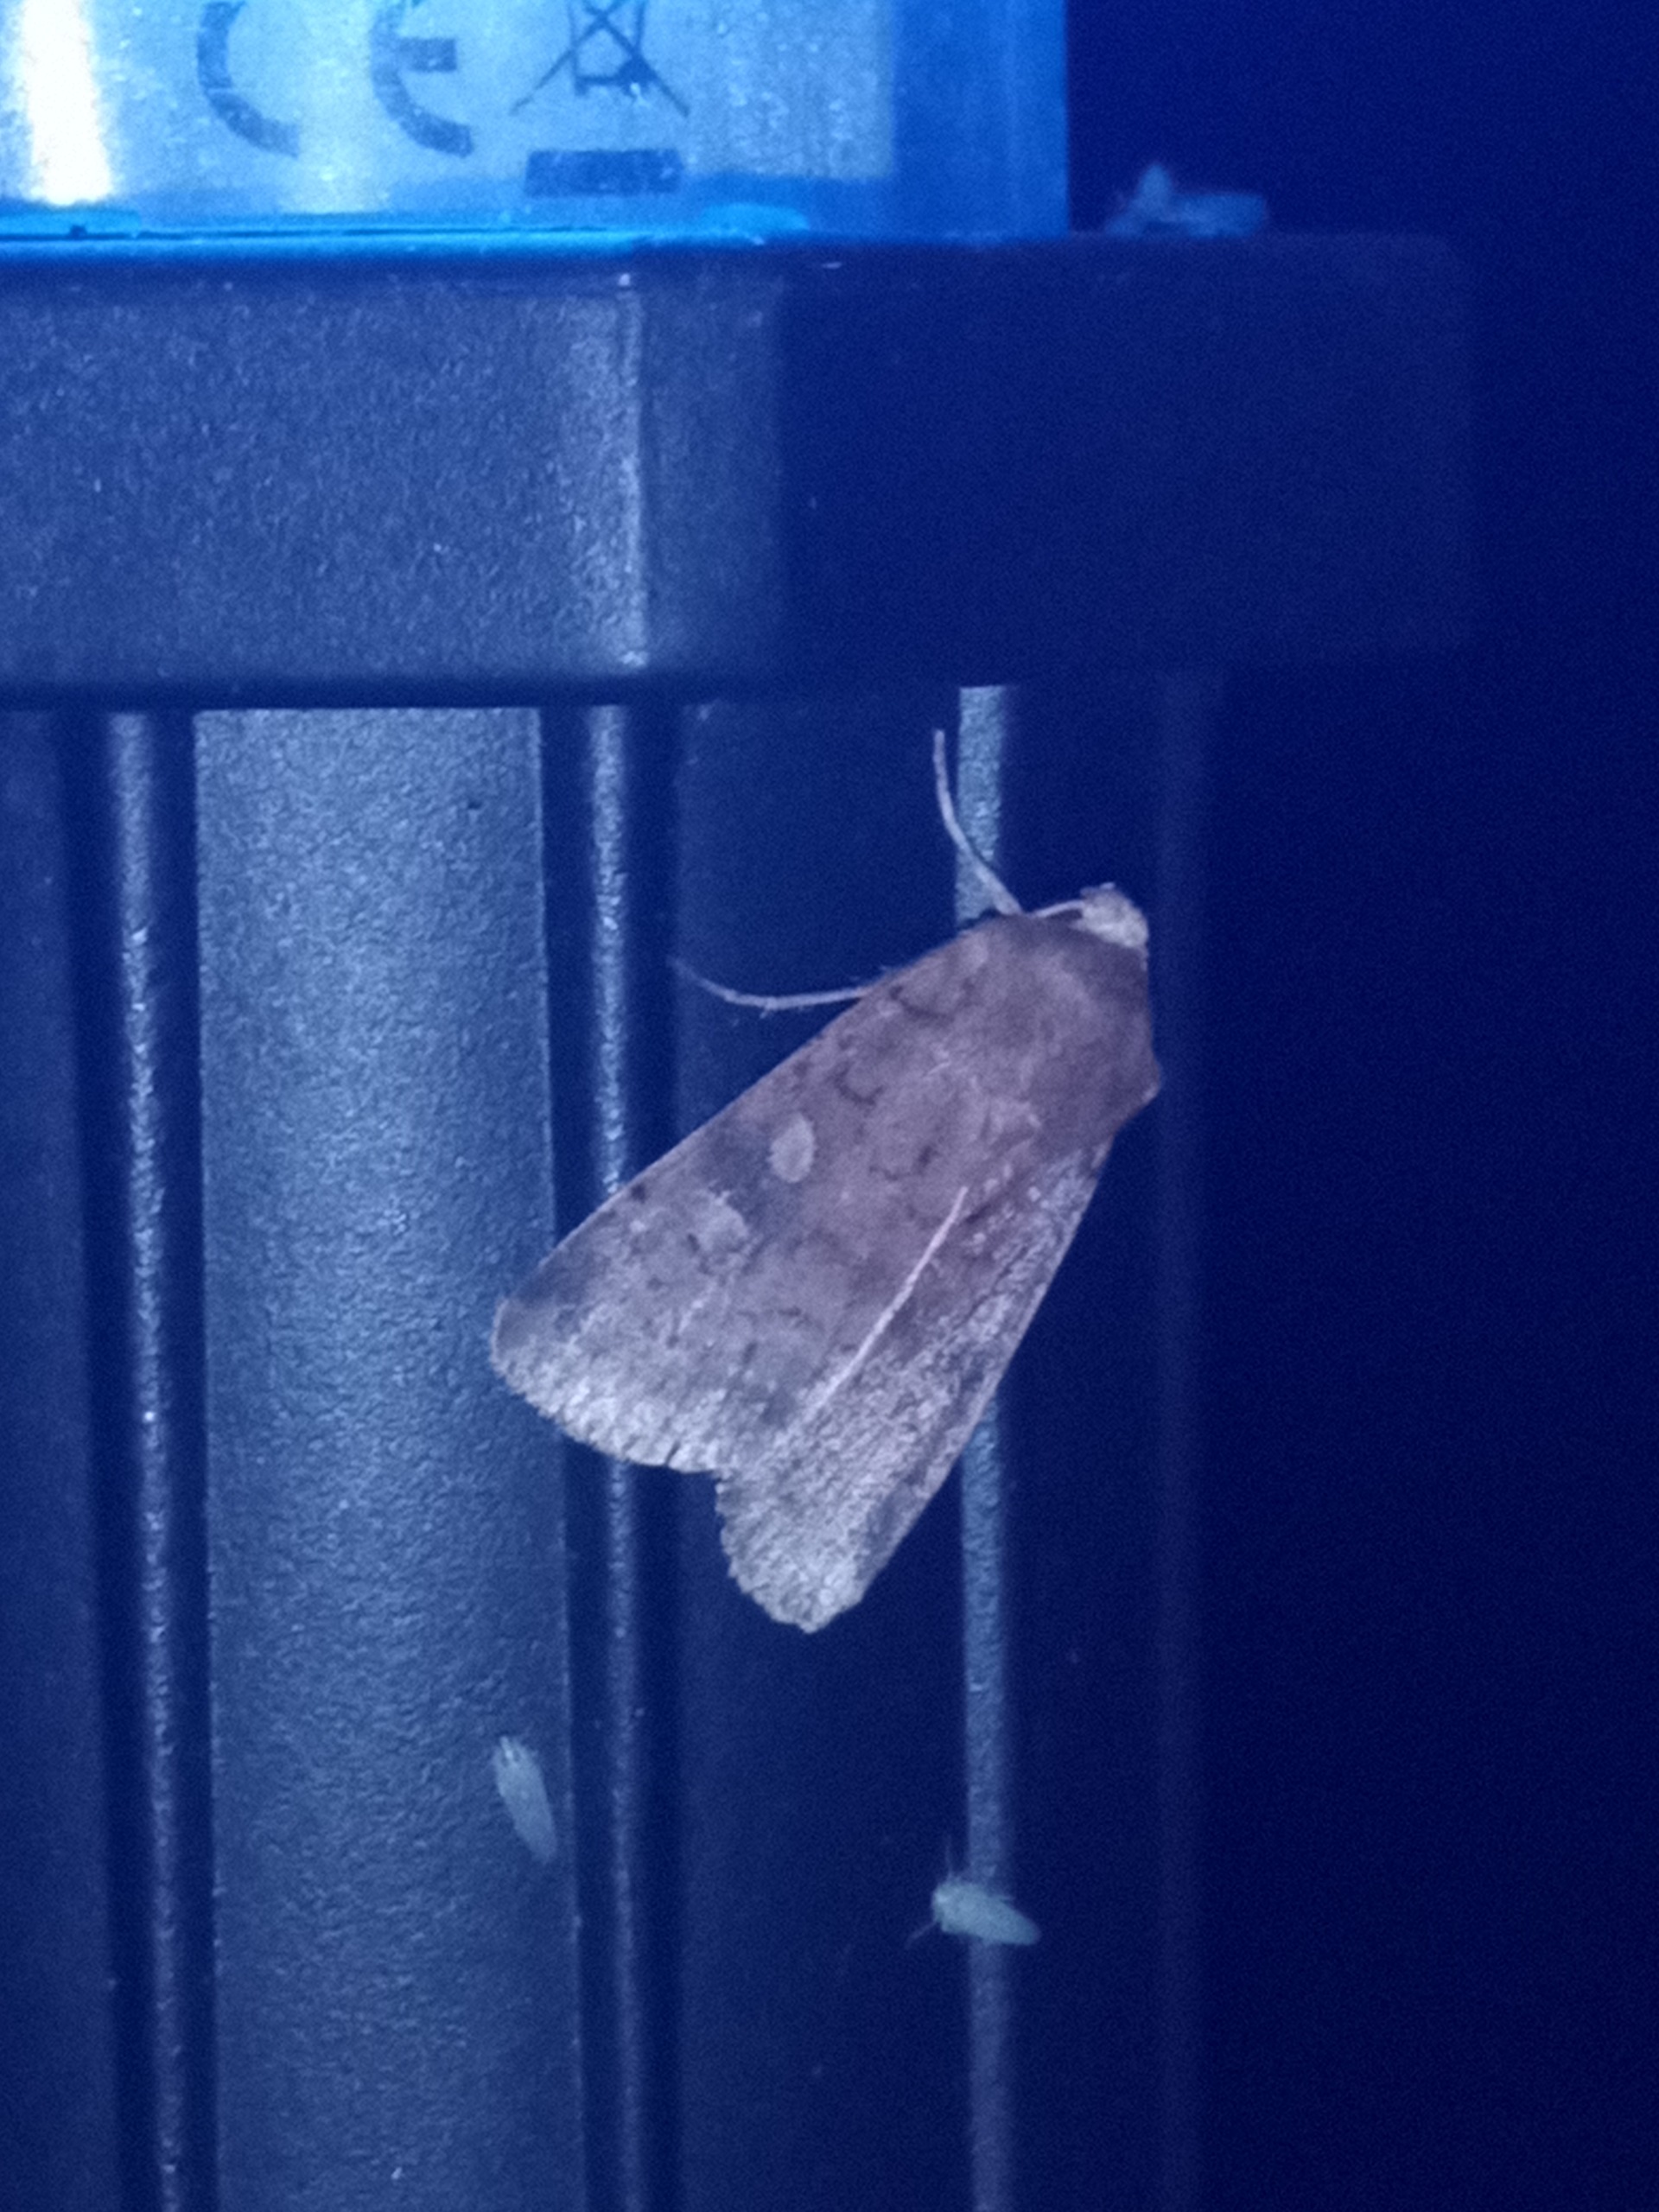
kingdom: Animalia
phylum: Arthropoda
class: Insecta
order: Lepidoptera
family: Noctuidae
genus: Xestia
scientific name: Xestia xanthographa
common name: Gulmærket glansugle
